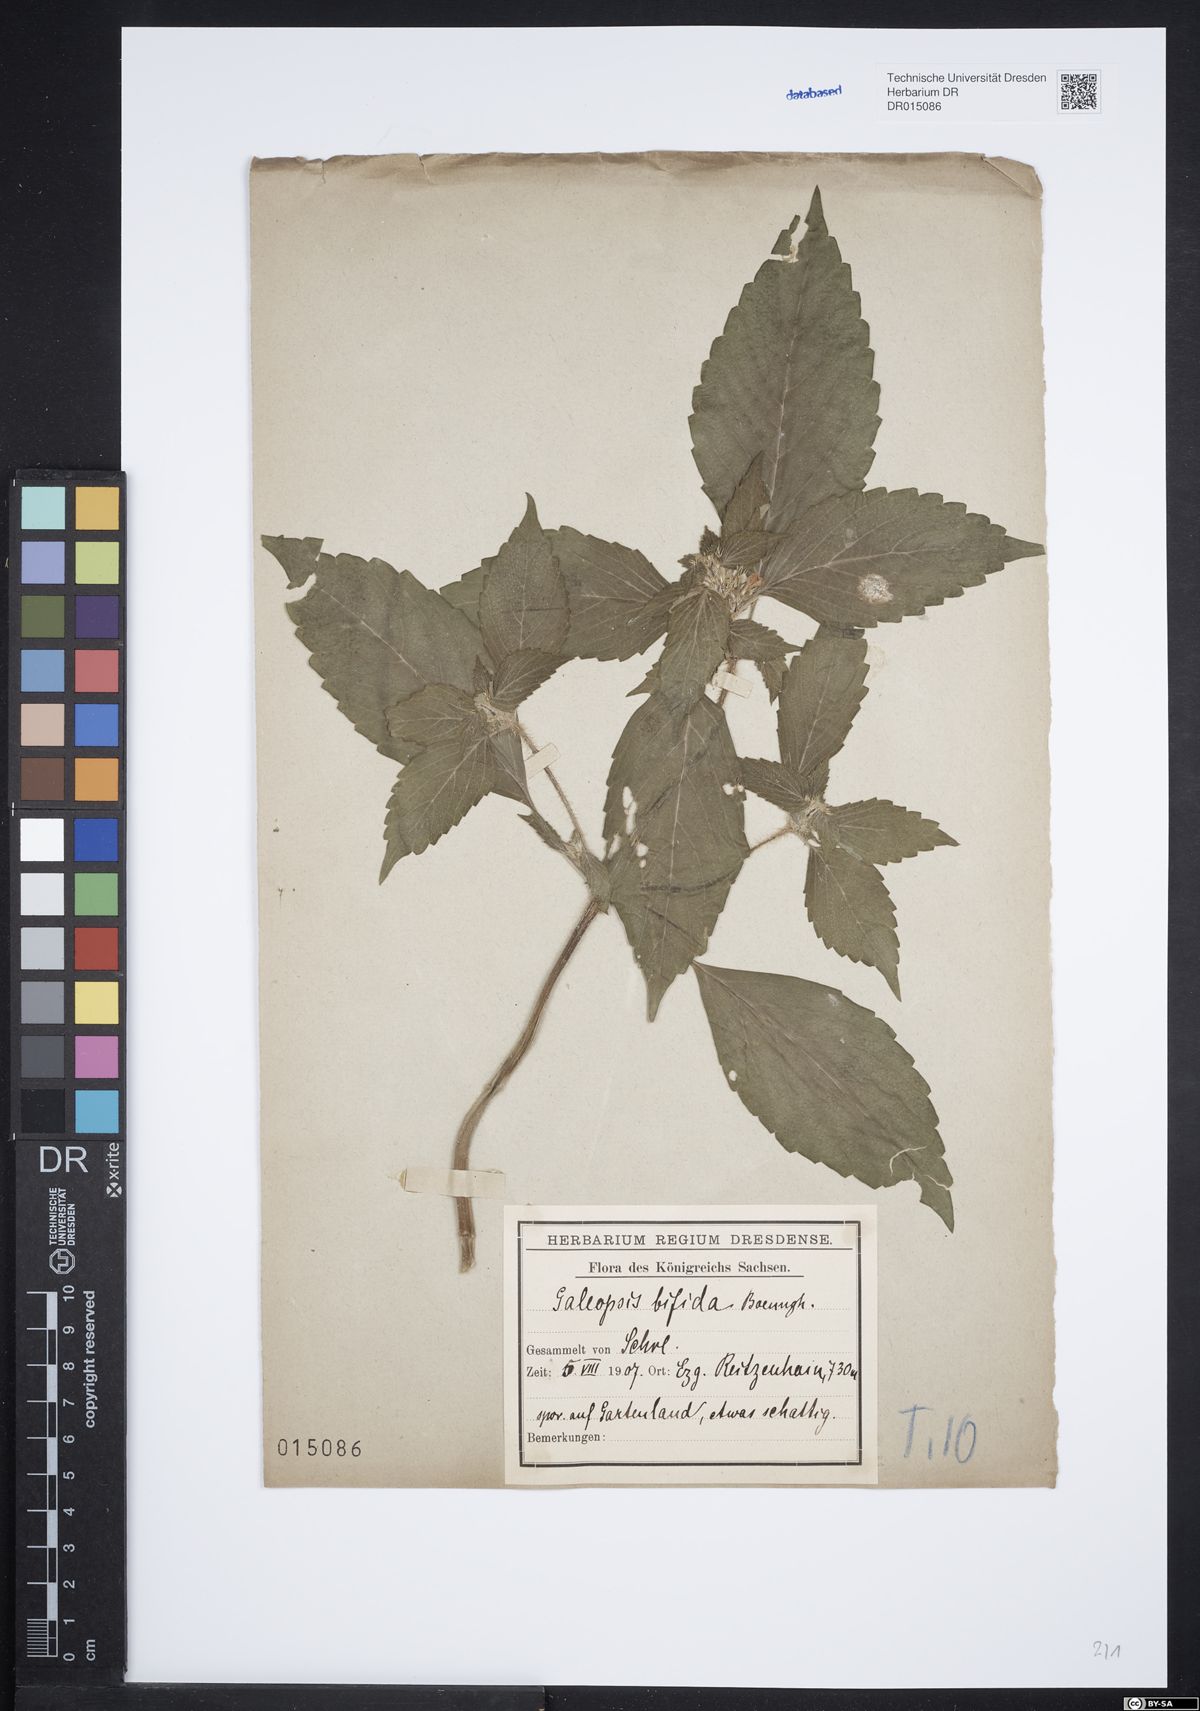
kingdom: Plantae
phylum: Tracheophyta
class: Magnoliopsida
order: Lamiales
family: Lamiaceae
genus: Galeopsis
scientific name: Galeopsis bifida
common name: Bifid hemp-nettle
